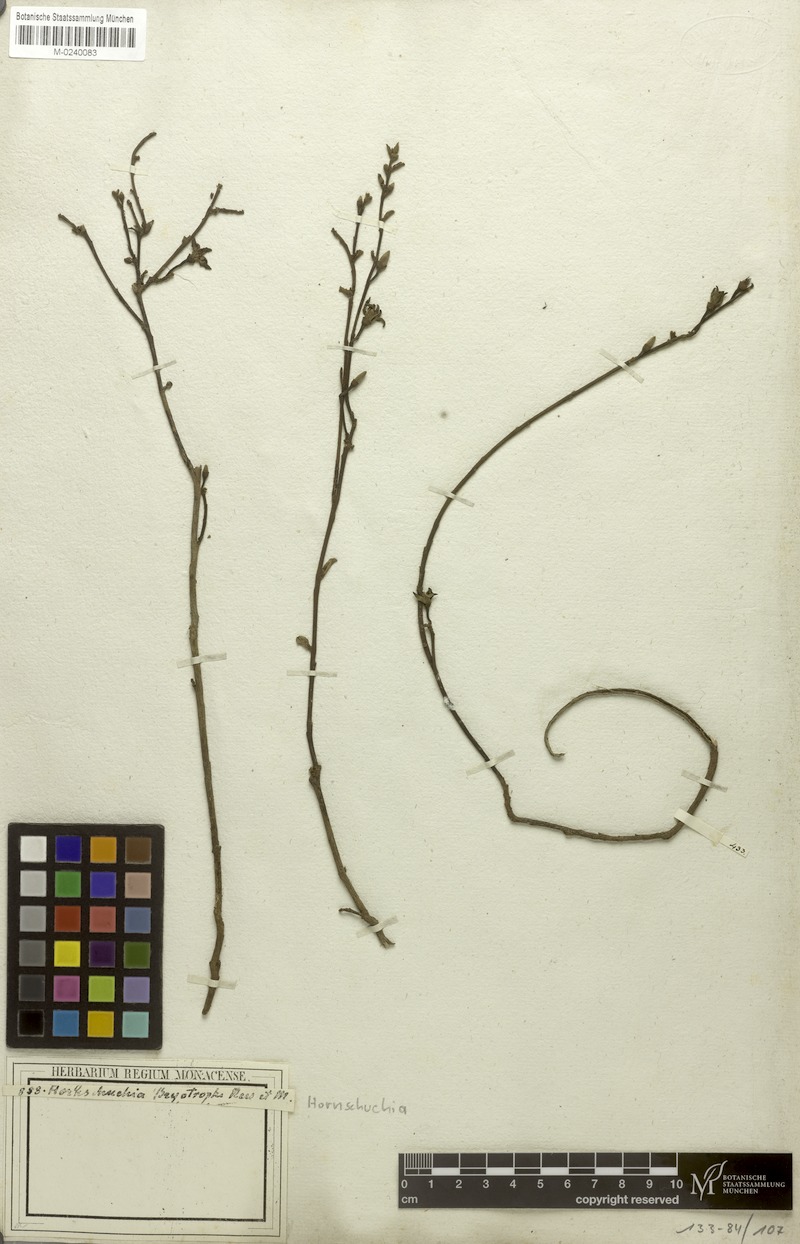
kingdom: Plantae
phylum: Tracheophyta
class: Magnoliopsida
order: Magnoliales
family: Annonaceae
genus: Hornschuchia
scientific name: Hornschuchia bryotrophe
